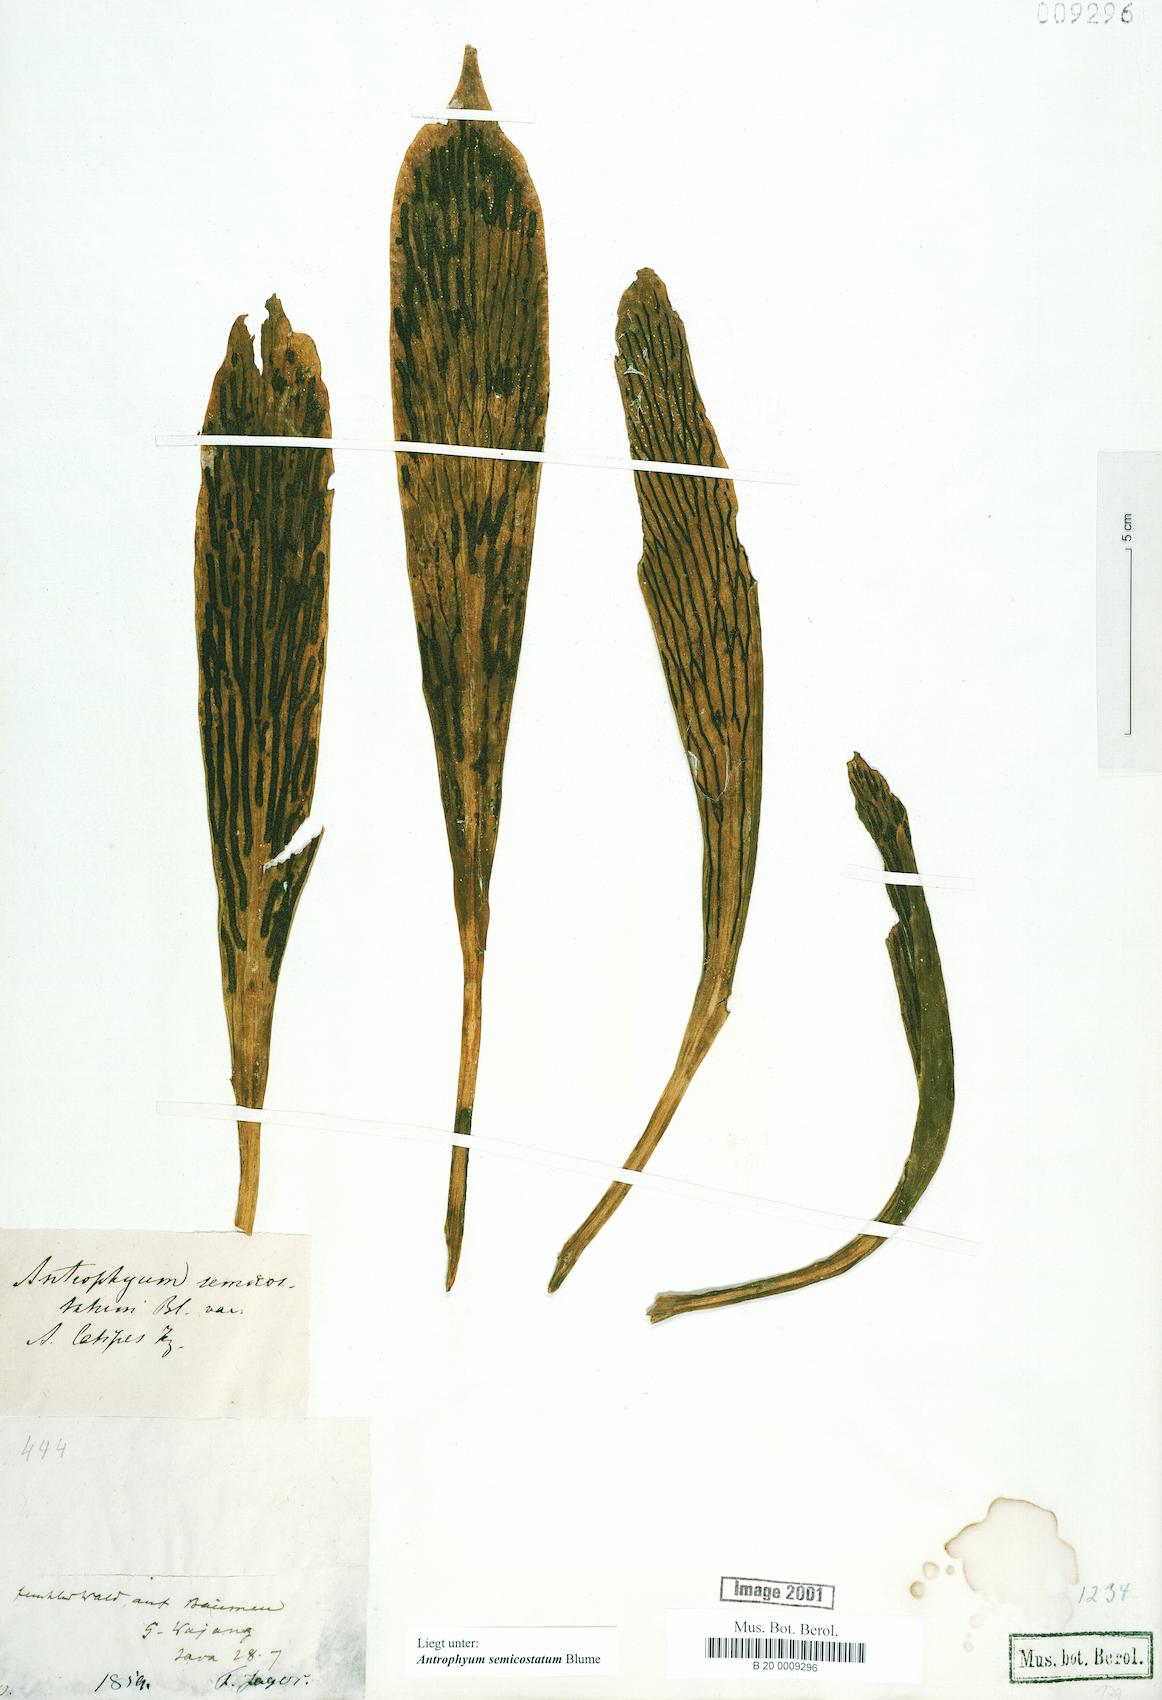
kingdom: Plantae
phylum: Tracheophyta
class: Polypodiopsida
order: Polypodiales
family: Pteridaceae
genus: Antrophyum
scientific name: Antrophyum semicostatum
